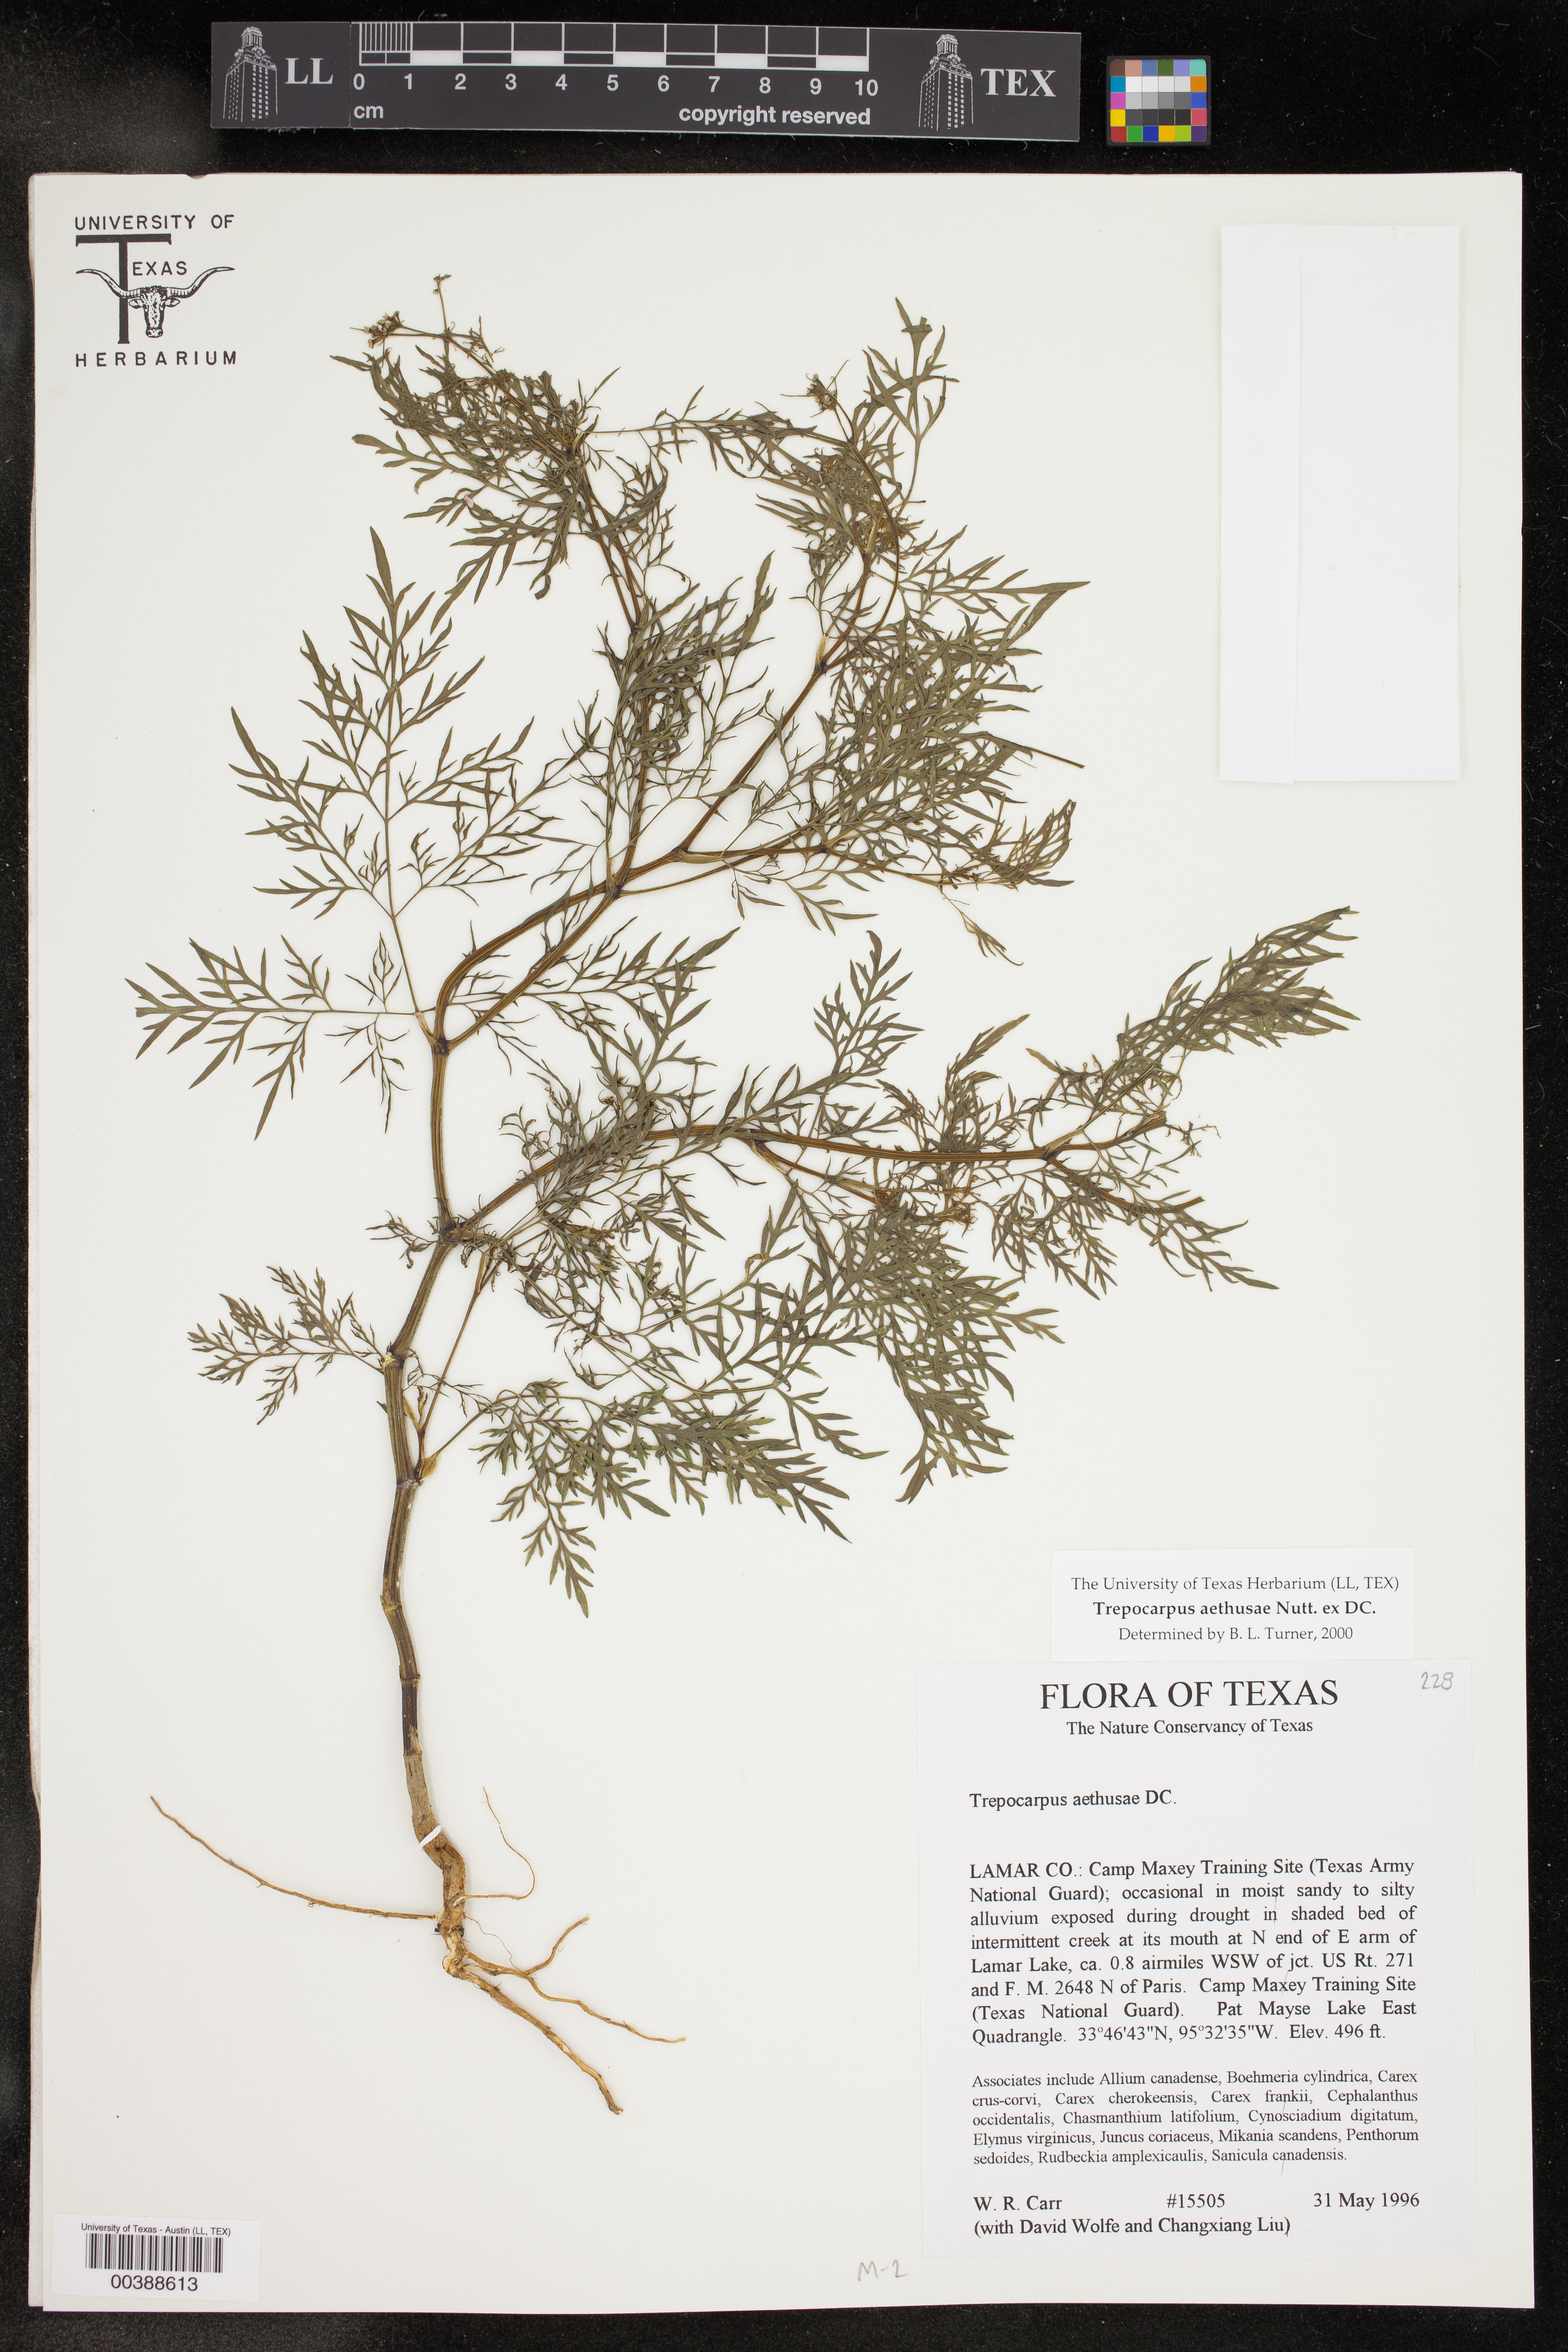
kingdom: Plantae
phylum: Tracheophyta
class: Magnoliopsida
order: Apiales
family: Apiaceae
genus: Trepocarpus
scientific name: Trepocarpus aethusae
